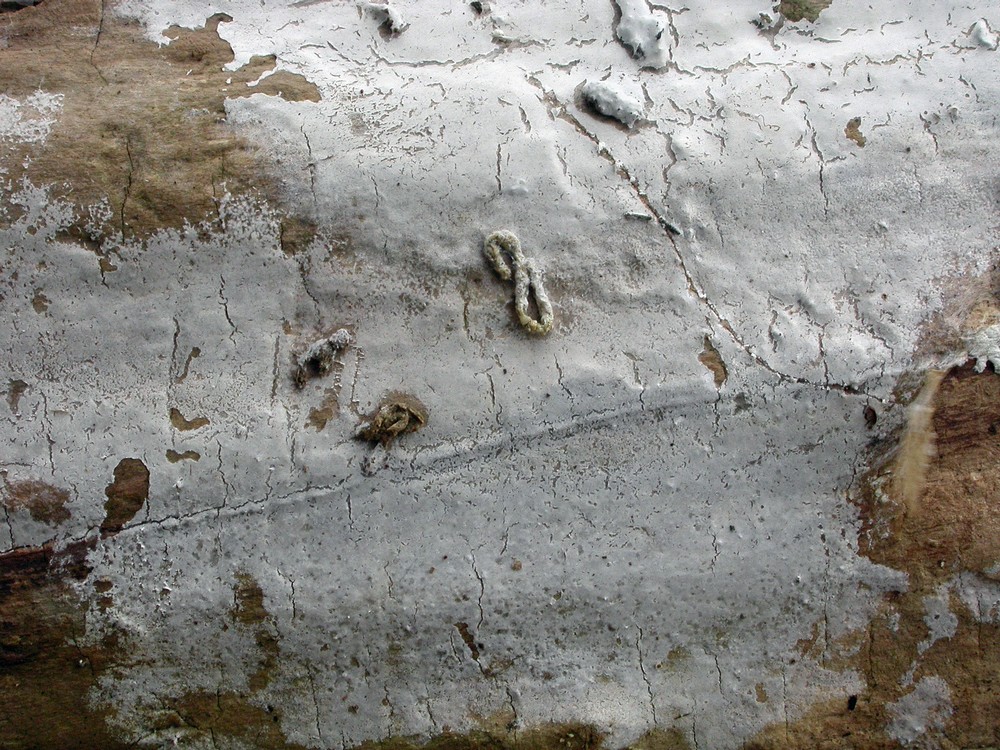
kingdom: Fungi
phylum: Basidiomycota
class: Agaricomycetes
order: Atheliales
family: Atheliaceae
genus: Athelia
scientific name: Athelia epiphylla
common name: almindelig barkhinde
